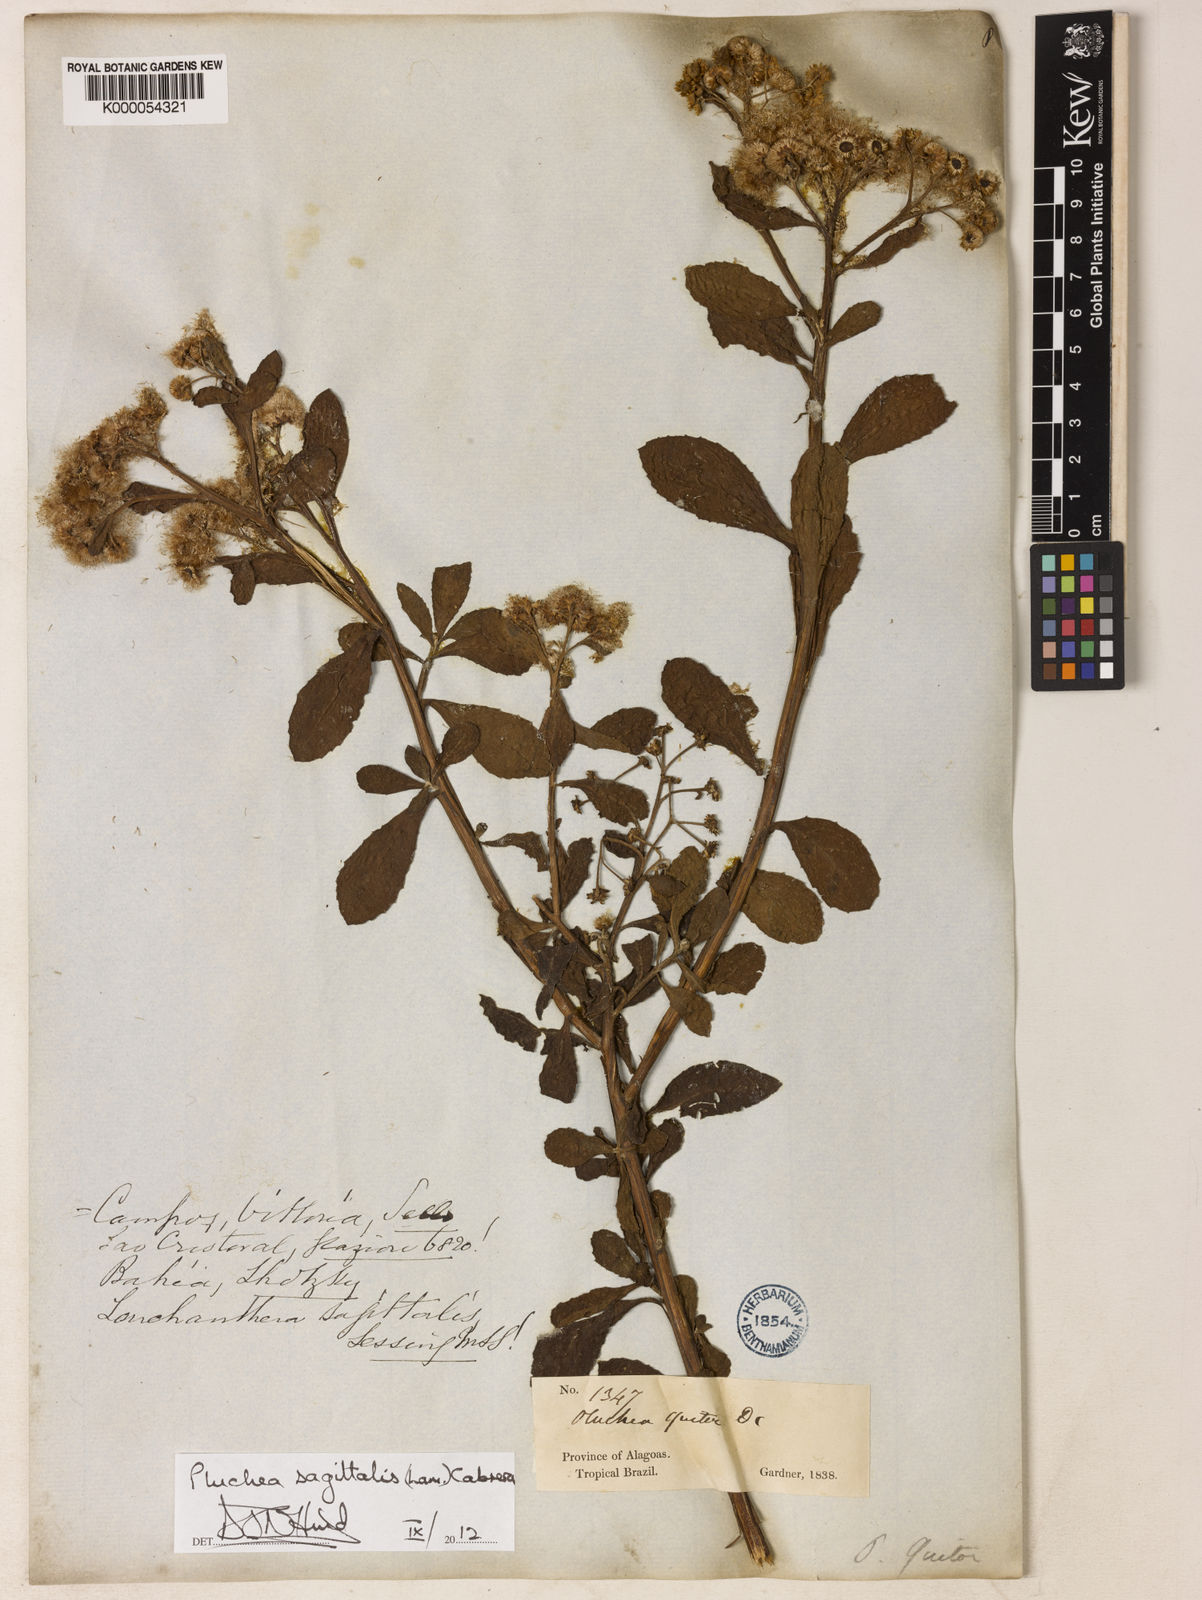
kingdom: Plantae
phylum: Tracheophyta
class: Magnoliopsida
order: Asterales
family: Asteraceae
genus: Pluchea
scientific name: Pluchea sagittalis
